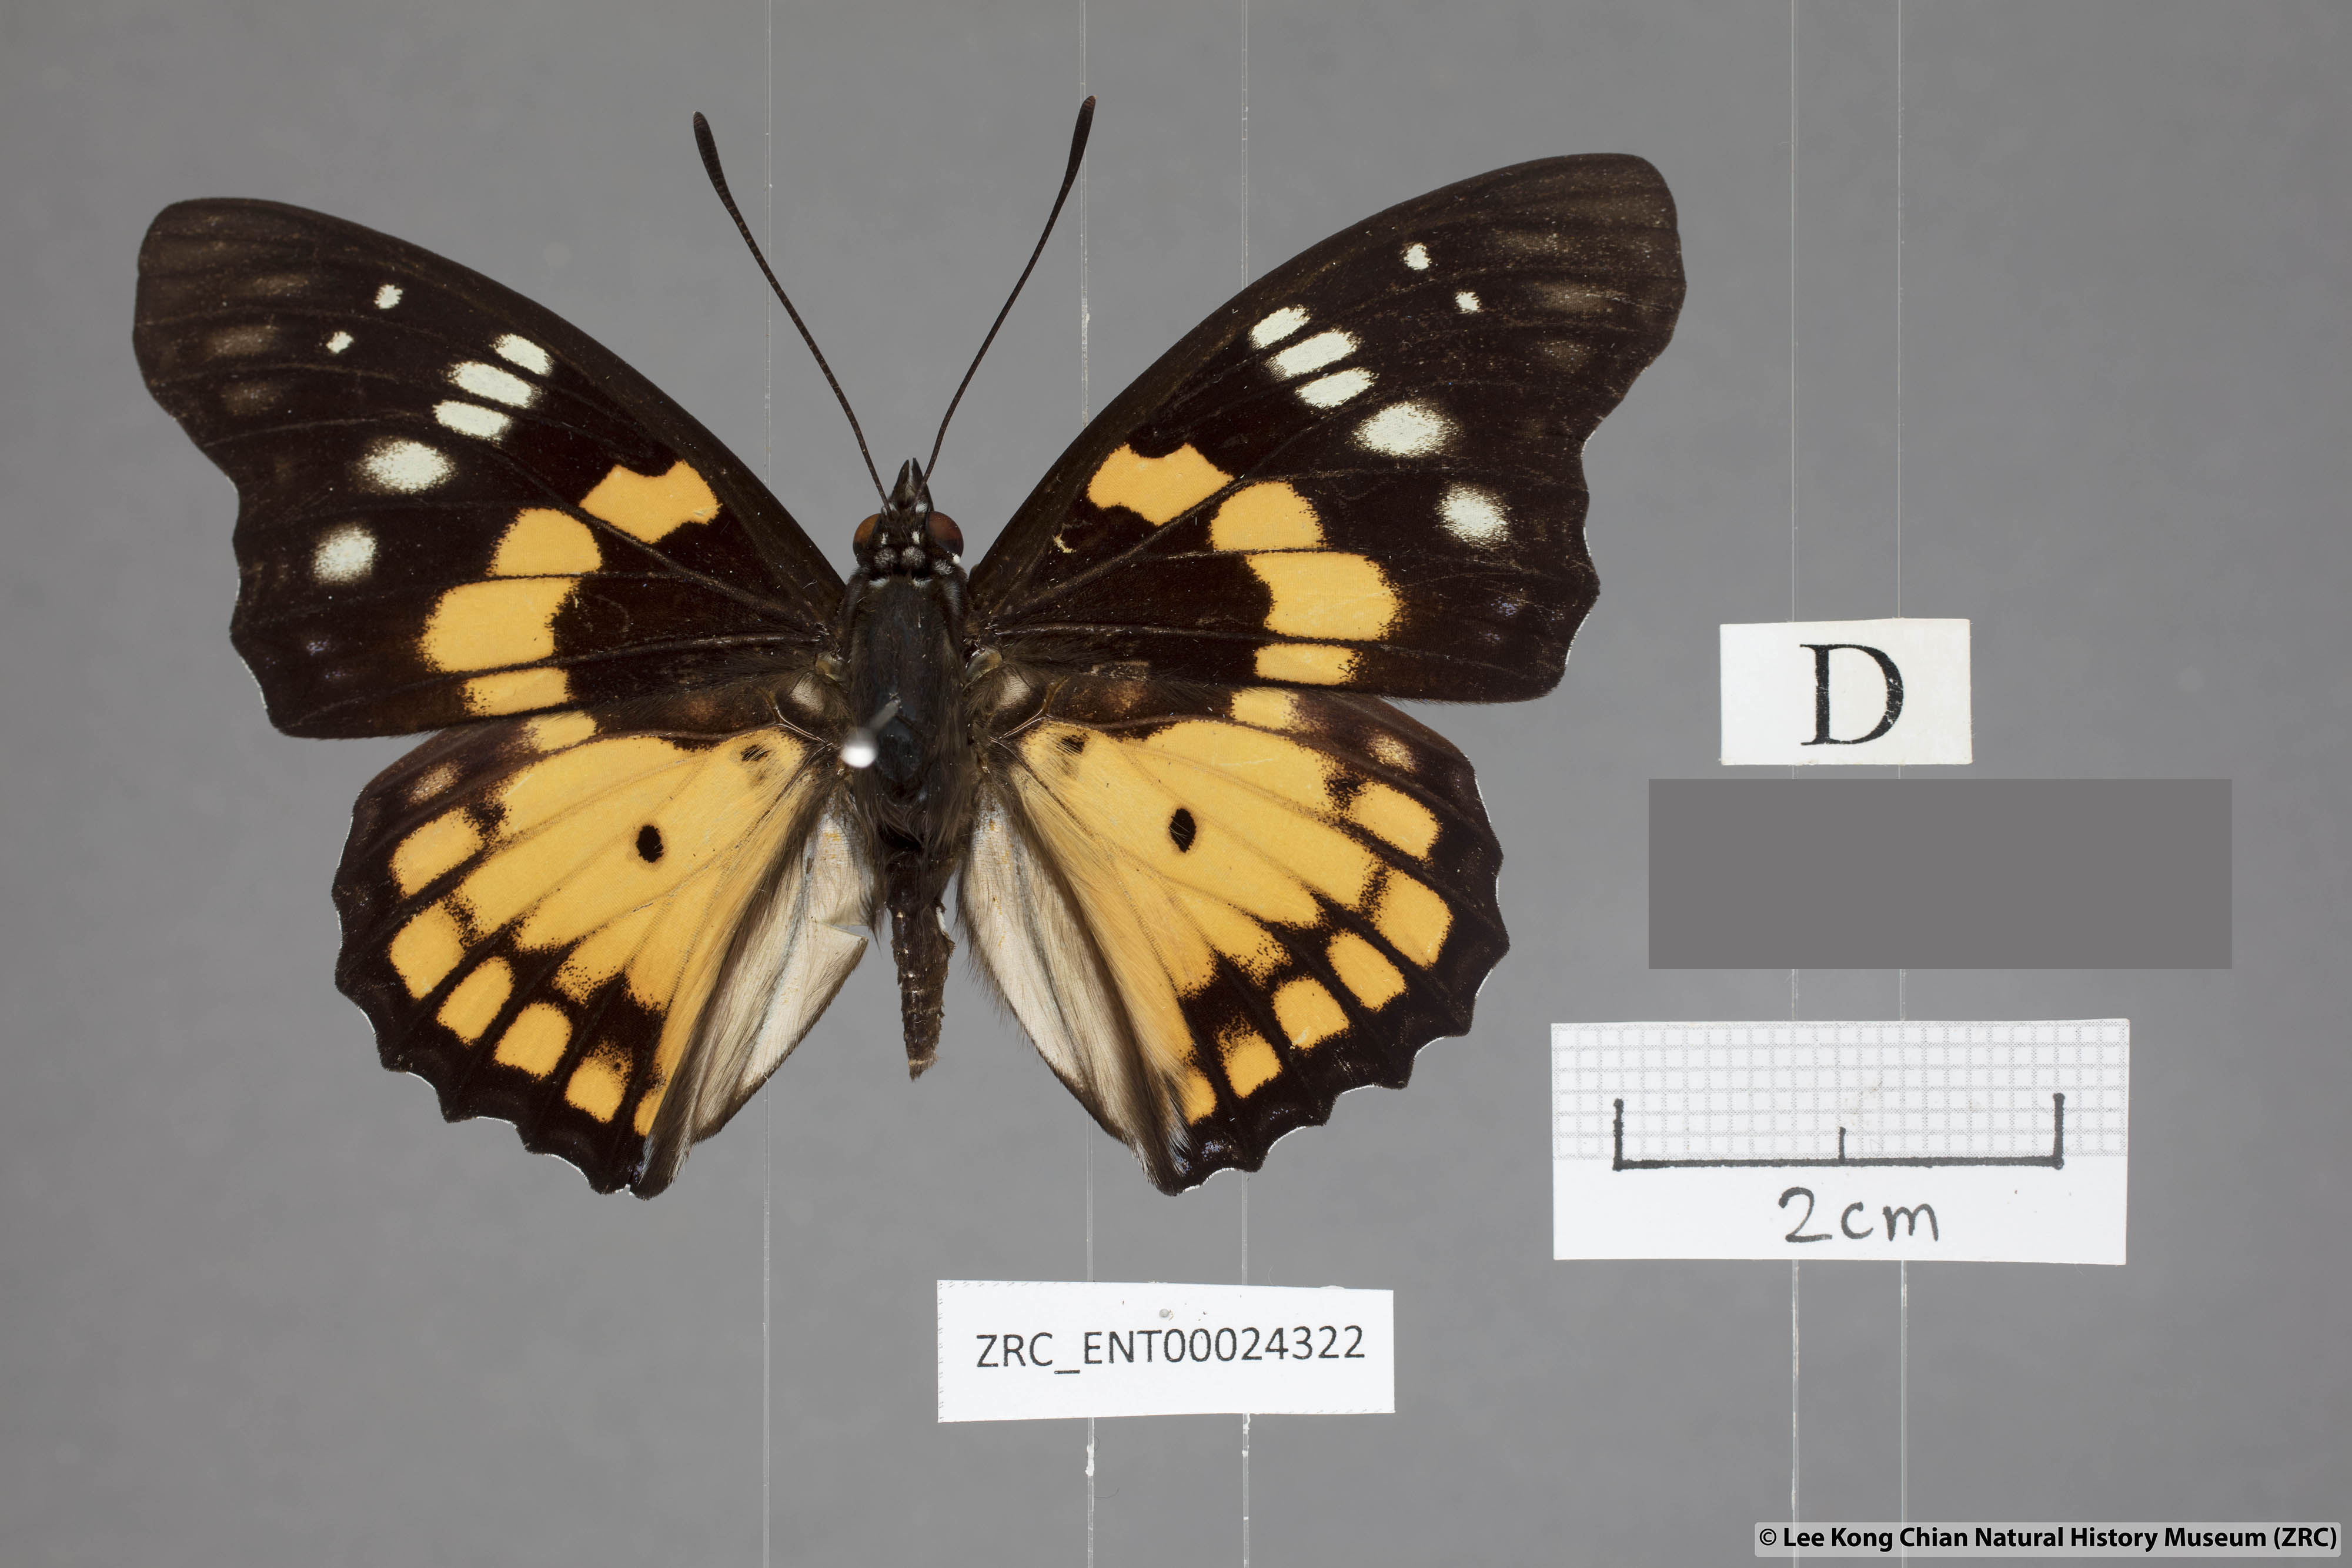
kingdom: Animalia
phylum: Arthropoda
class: Insecta
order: Lepidoptera
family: Nymphalidae
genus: Sephisa
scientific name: Sephisa chandra
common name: Eastern courtier
